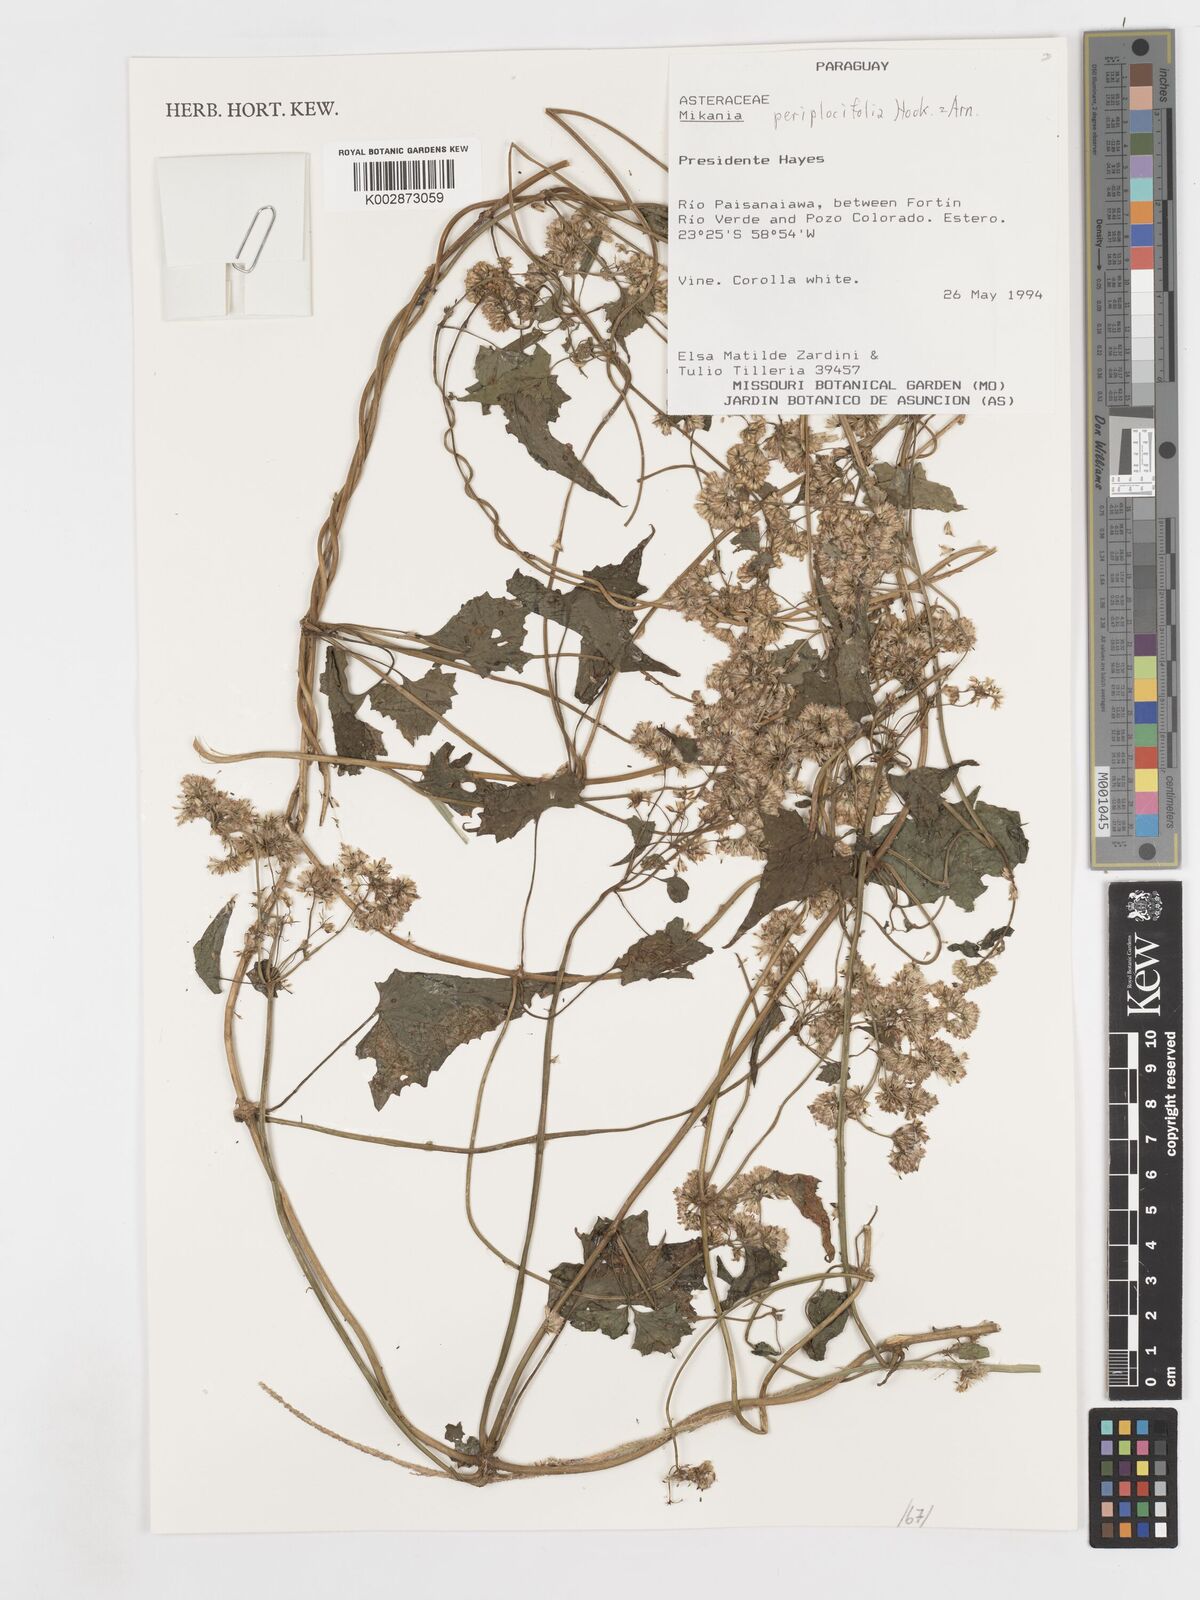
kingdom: Plantae
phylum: Tracheophyta
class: Magnoliopsida
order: Asterales
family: Asteraceae
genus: Mikania
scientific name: Mikania periplocifolia
